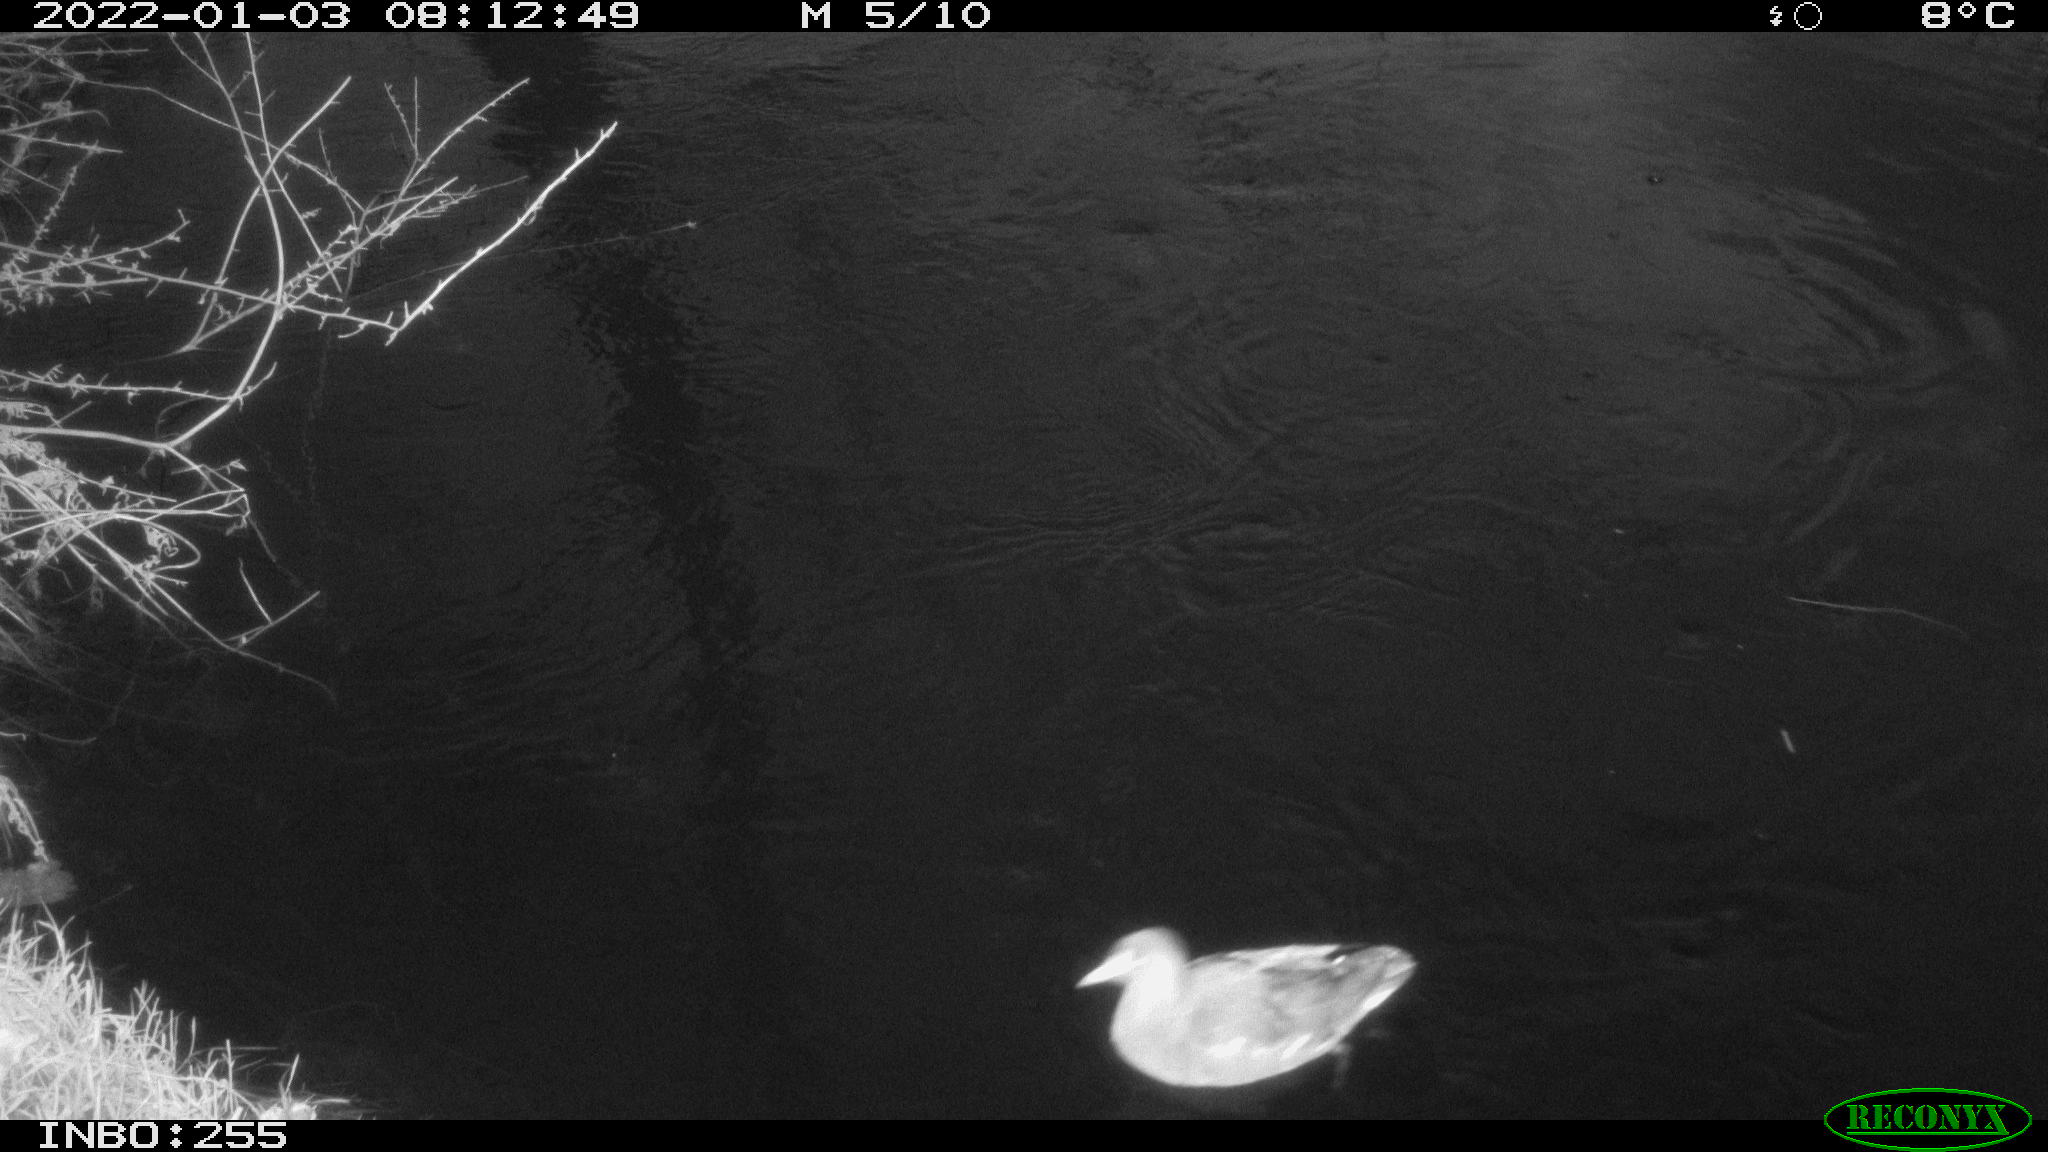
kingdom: Animalia
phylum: Chordata
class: Aves
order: Gruiformes
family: Rallidae
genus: Fulica
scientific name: Fulica atra
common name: Eurasian coot
